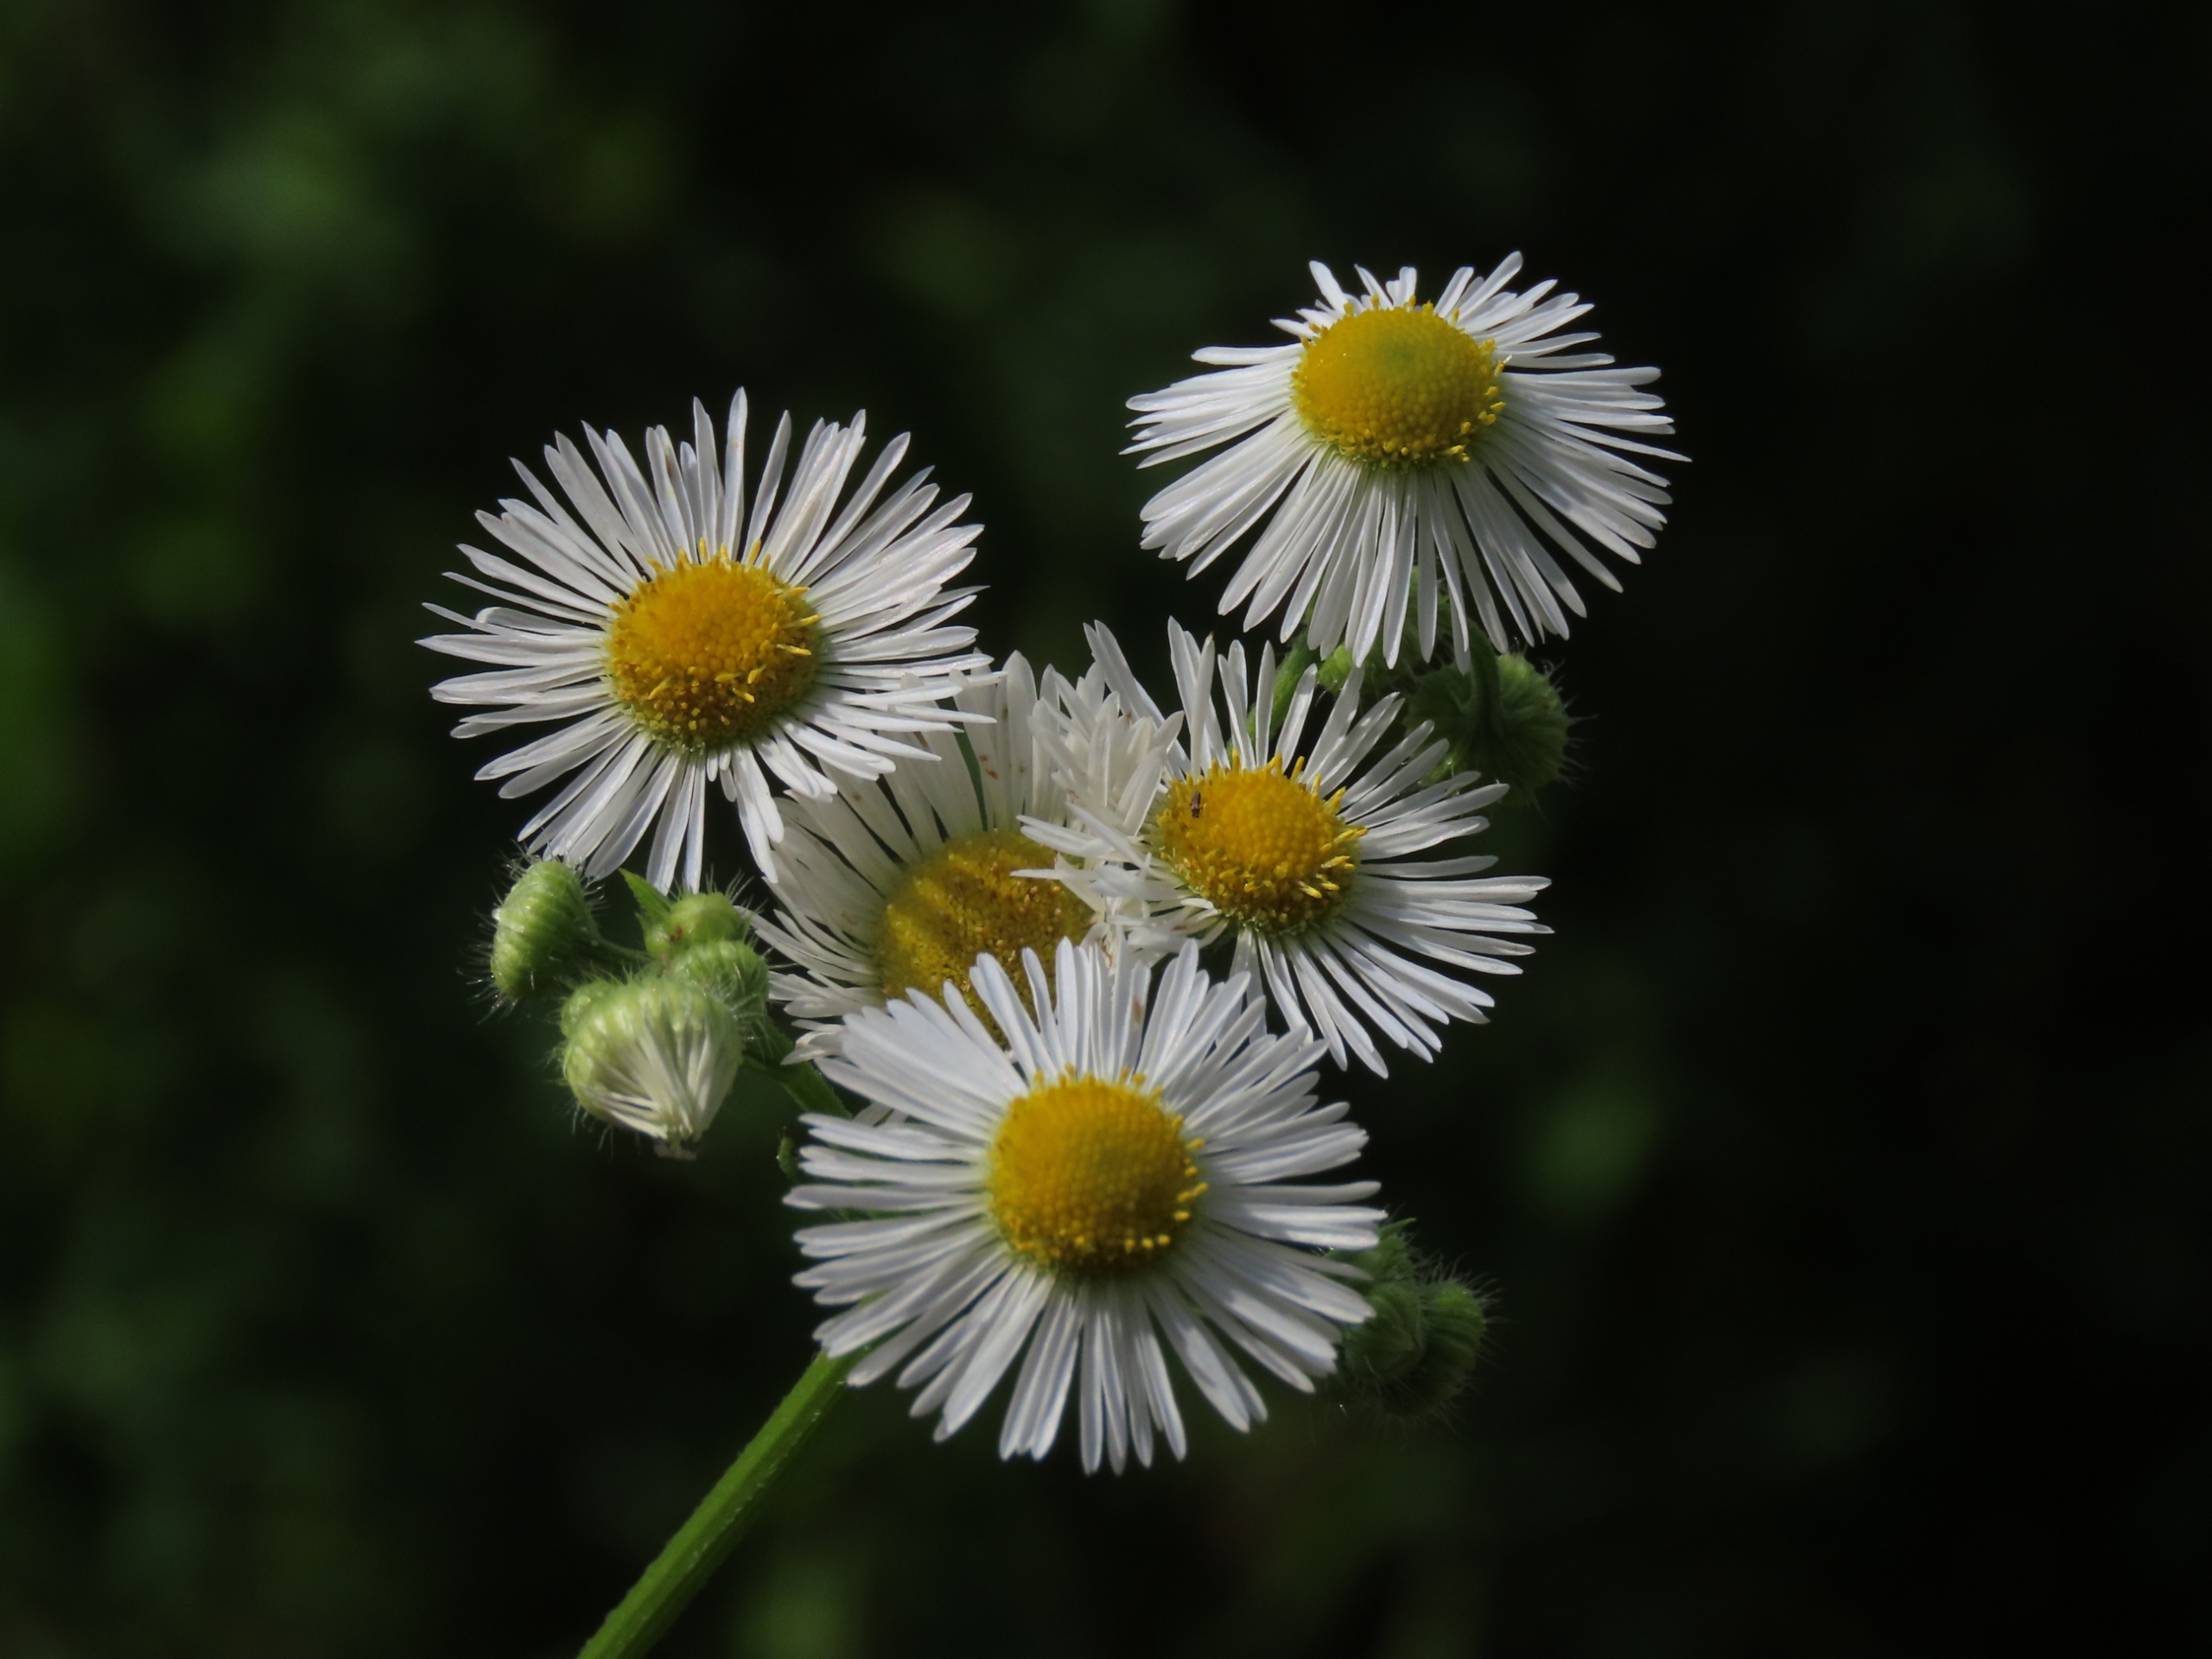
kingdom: Plantae
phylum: Tracheophyta
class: Magnoliopsida
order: Asterales
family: Asteraceae
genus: Erigeron
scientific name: Erigeron annuus
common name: Smalstråle
